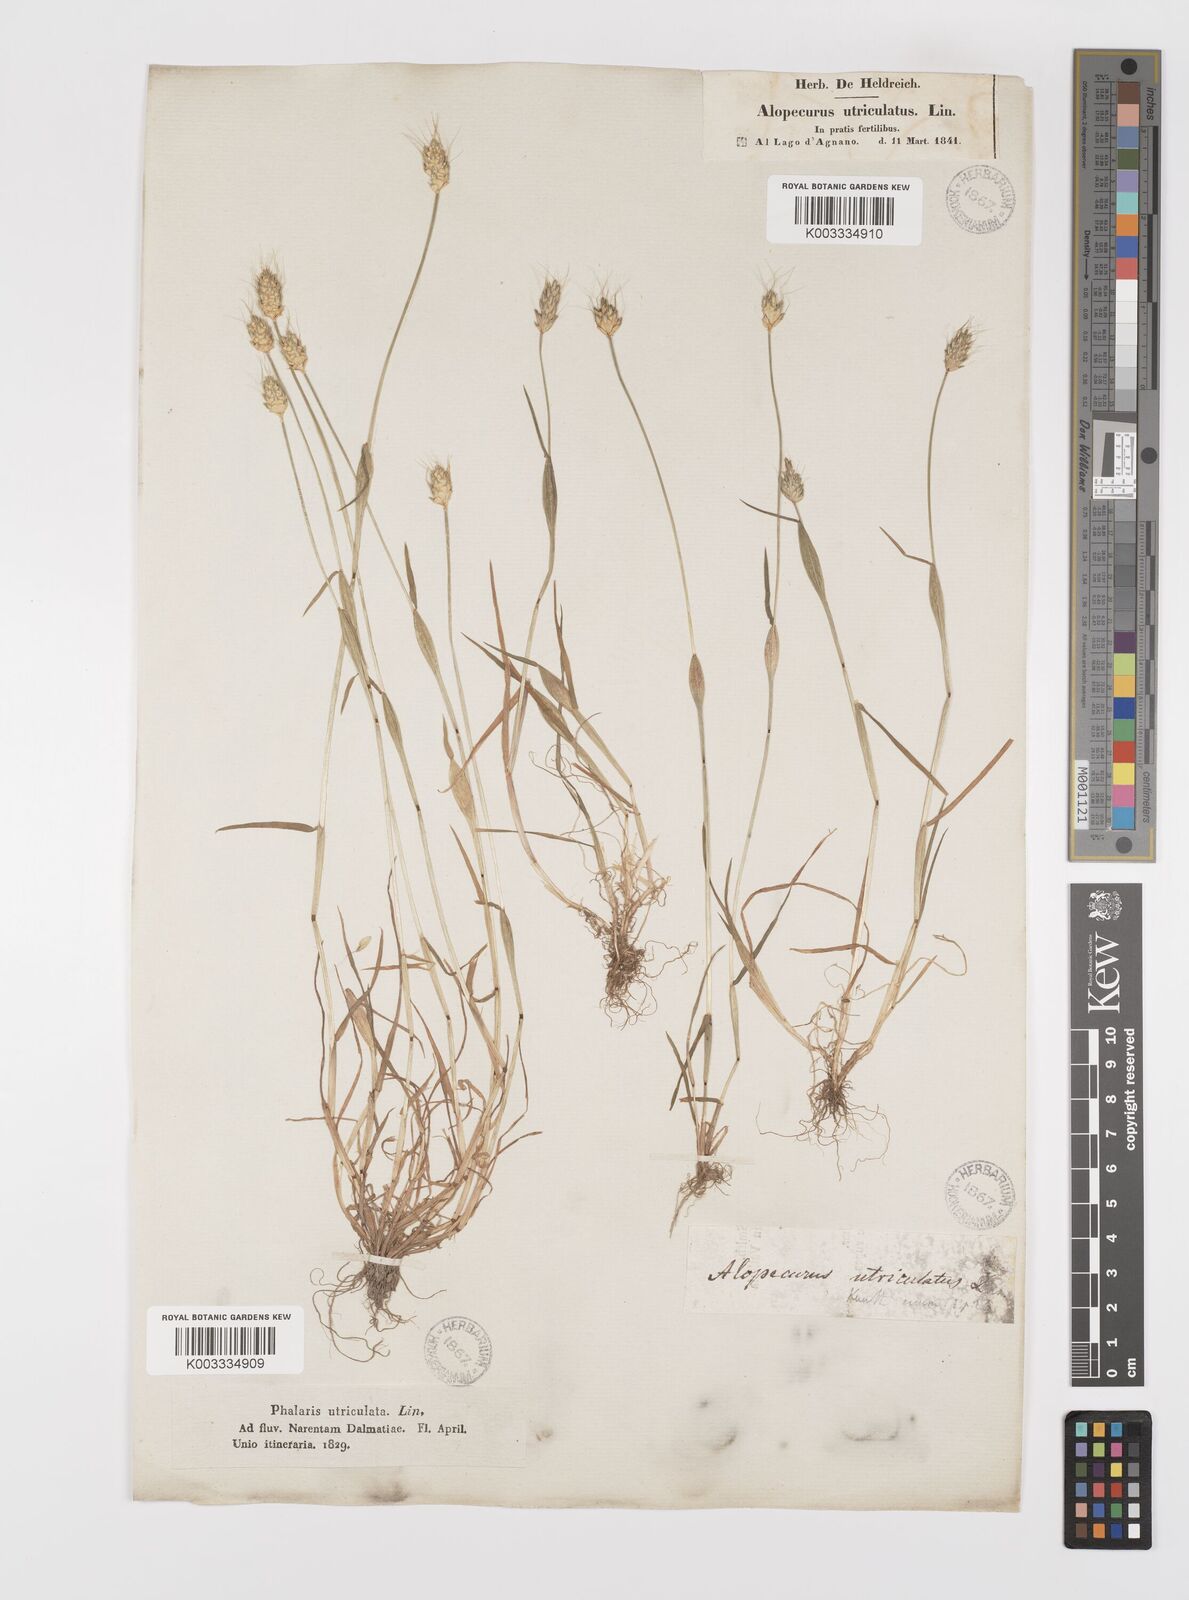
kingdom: Plantae
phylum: Tracheophyta
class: Liliopsida
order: Poales
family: Poaceae
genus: Alopecurus
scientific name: Alopecurus rendlei
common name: Rendle's meadow foxtail
